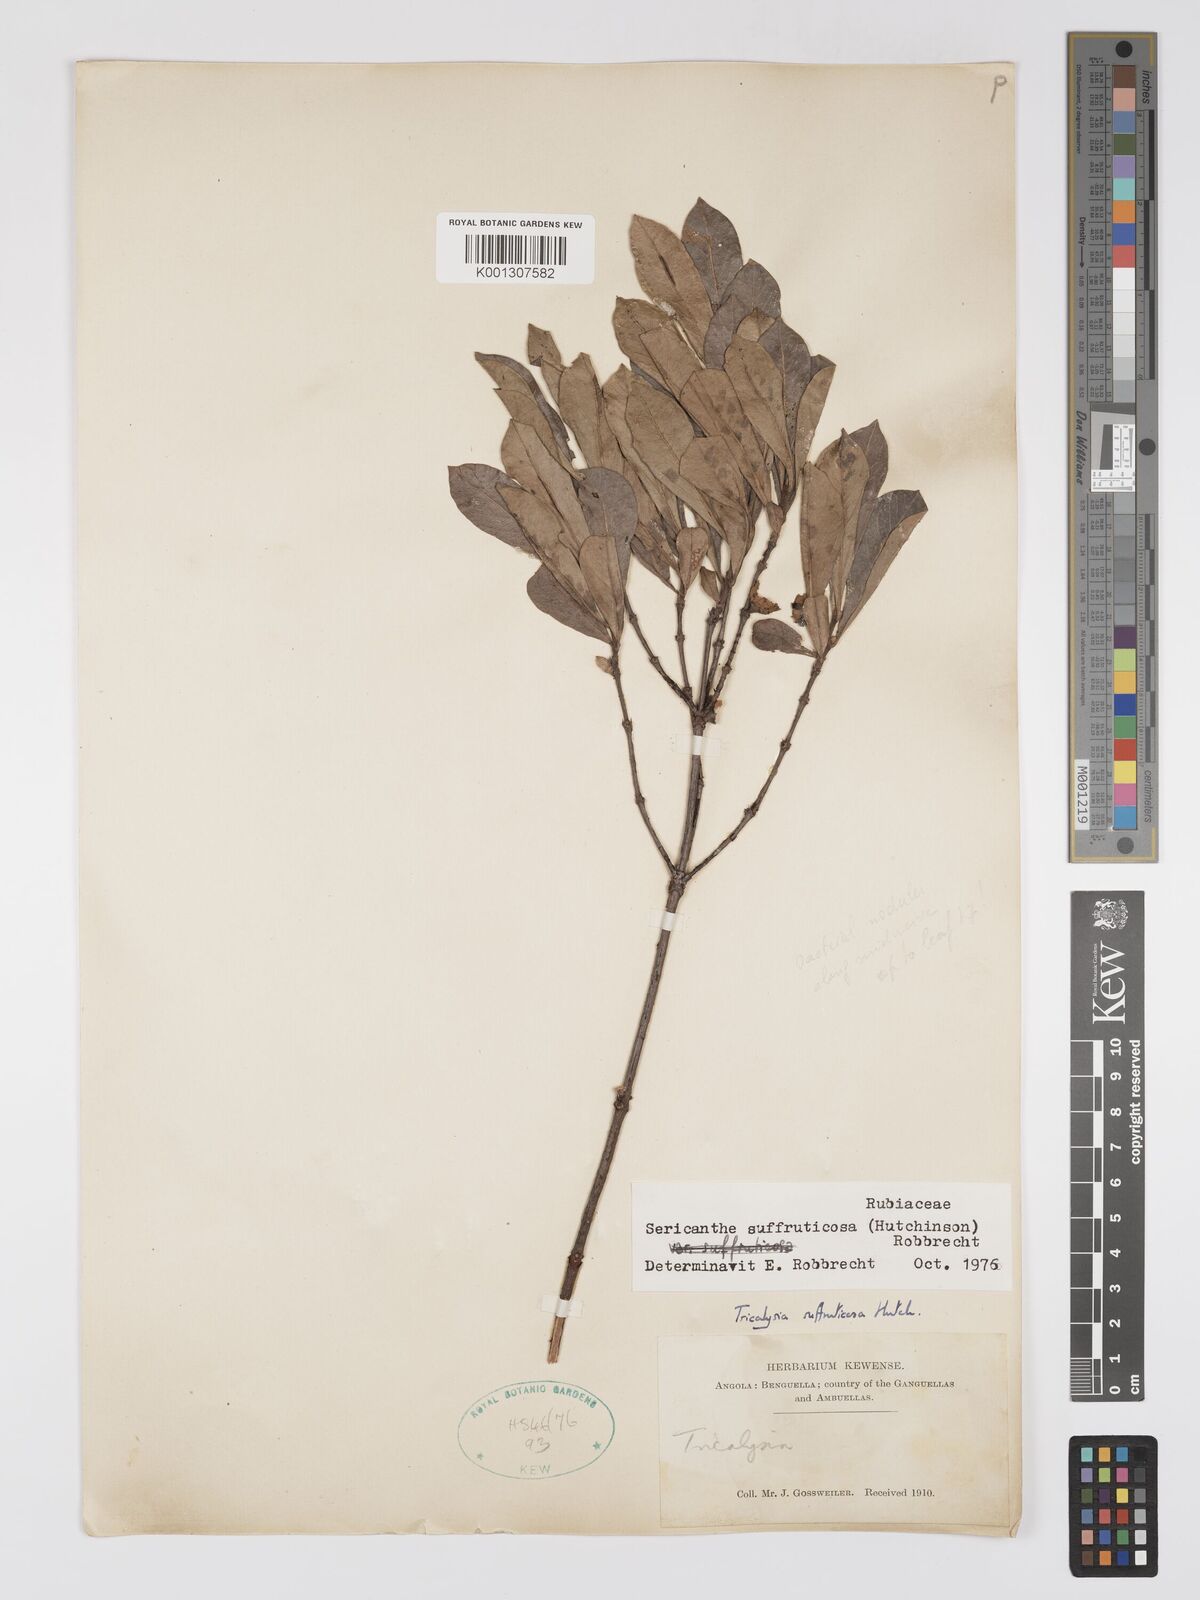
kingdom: Plantae
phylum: Tracheophyta
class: Magnoliopsida
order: Gentianales
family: Rubiaceae
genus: Sericanthe
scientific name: Sericanthe suffruticosa
